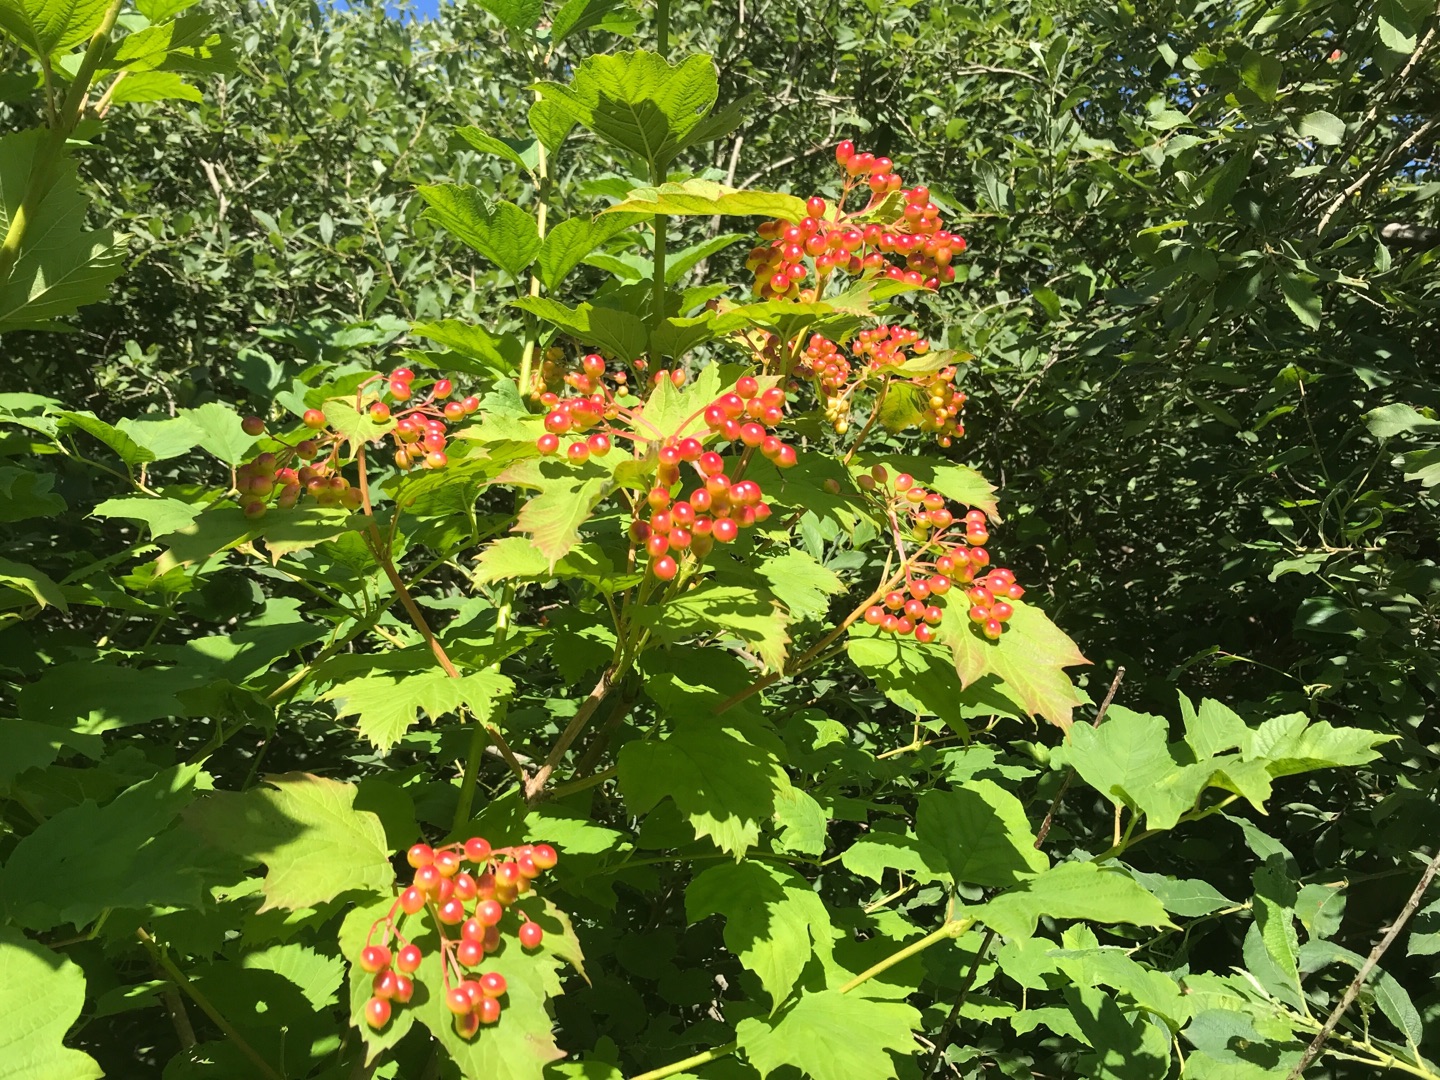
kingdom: Plantae
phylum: Tracheophyta
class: Magnoliopsida
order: Dipsacales
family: Viburnaceae
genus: Viburnum
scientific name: Viburnum opulus
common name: Kvalkved
